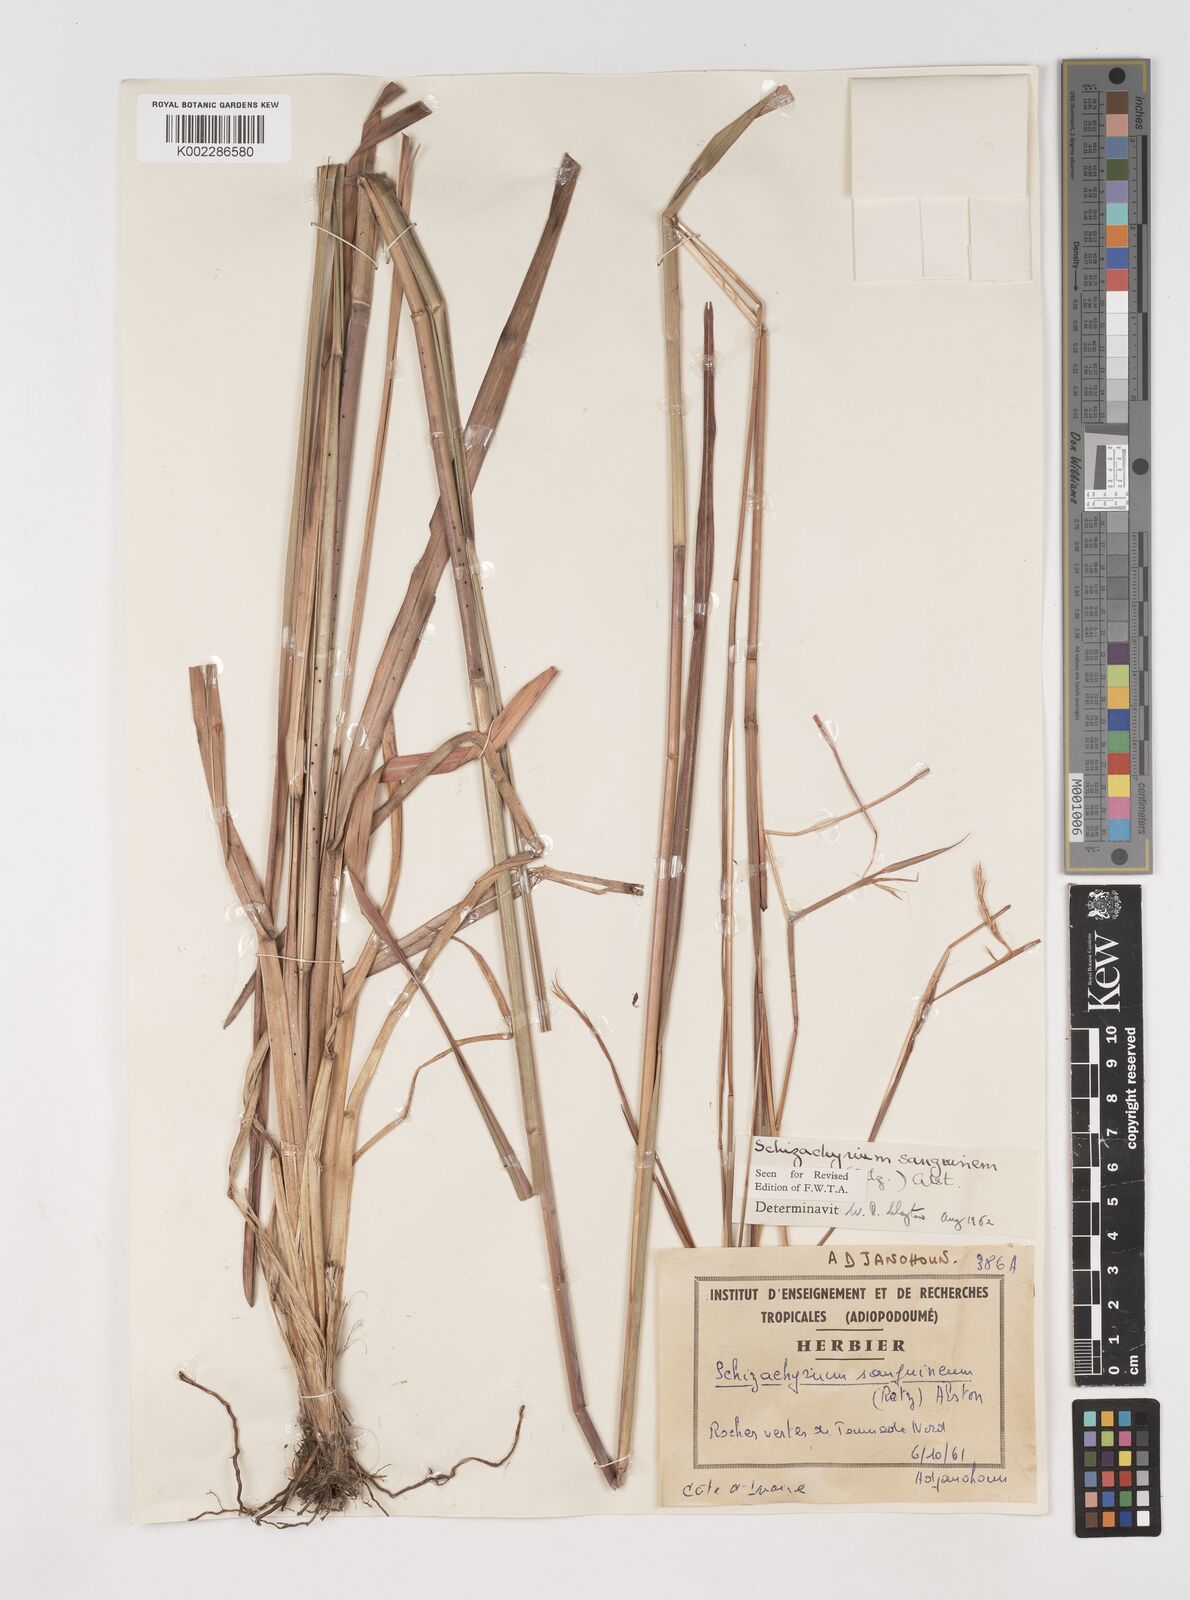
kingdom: Plantae
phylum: Tracheophyta
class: Liliopsida
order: Poales
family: Poaceae
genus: Schizachyrium
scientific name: Schizachyrium sanguineum
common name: Crimson bluestem
